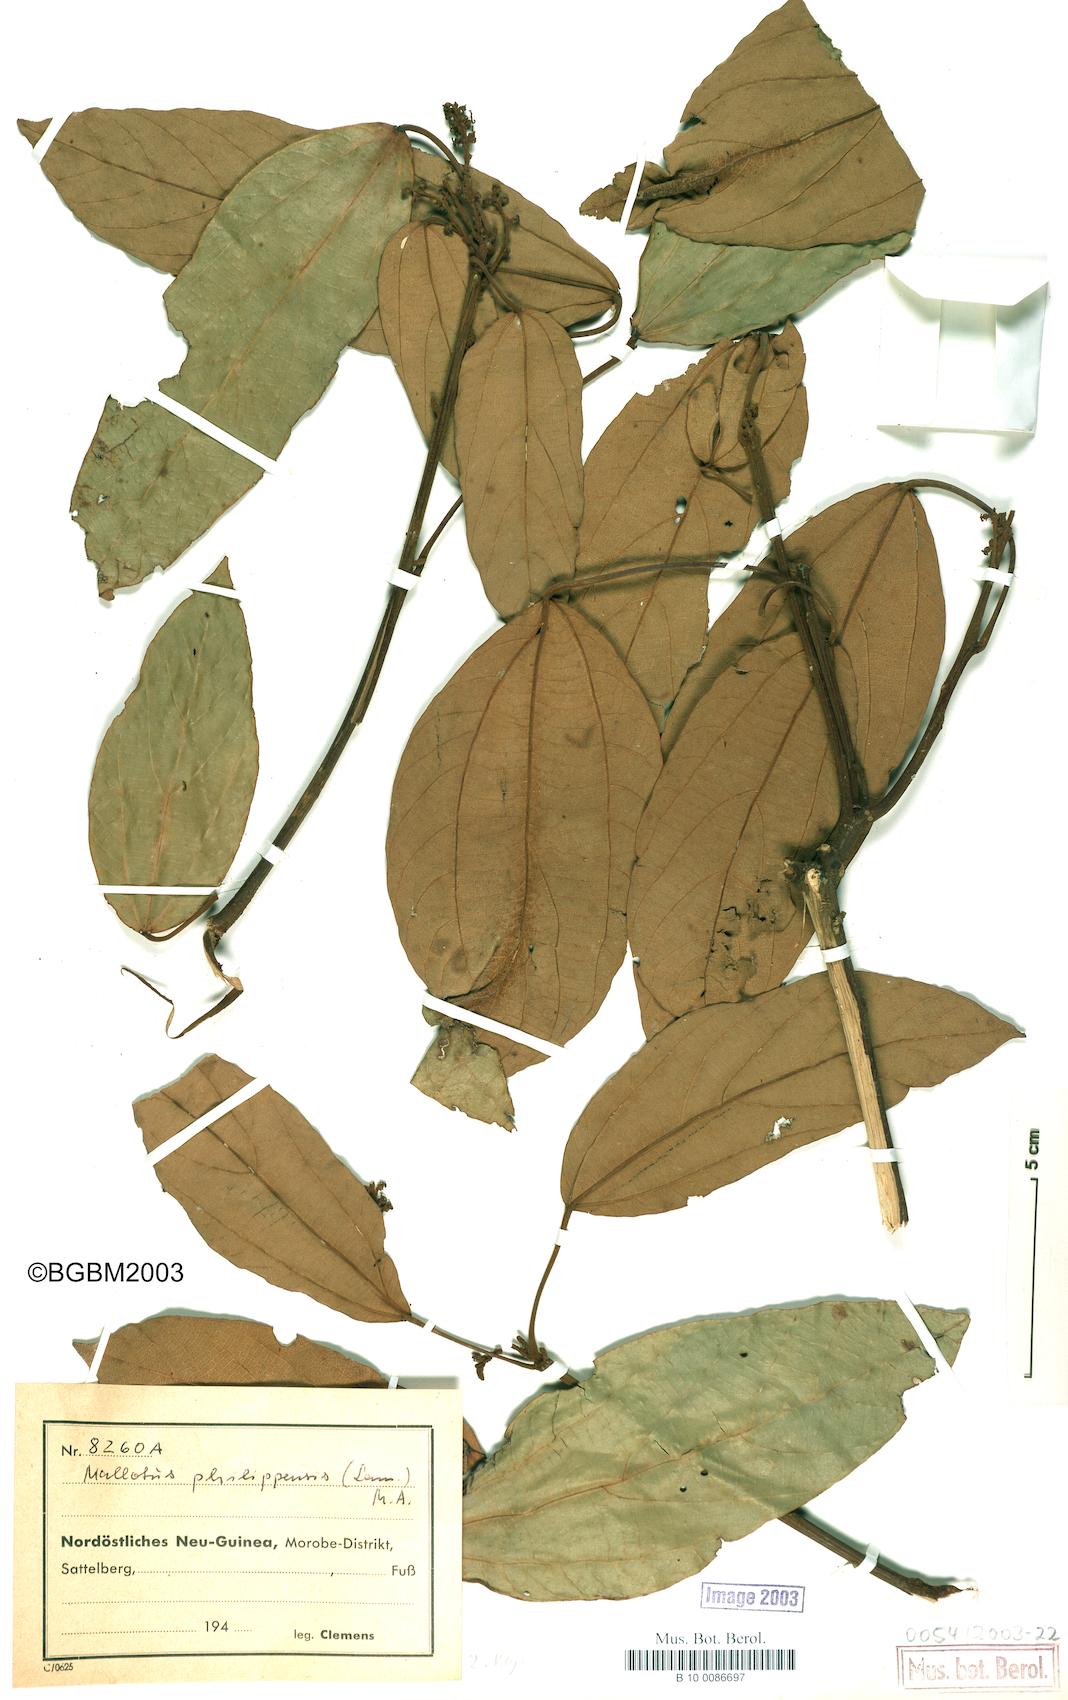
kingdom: Plantae
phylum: Tracheophyta
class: Magnoliopsida
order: Malpighiales
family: Euphorbiaceae
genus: Mallotus
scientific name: Mallotus philippensis
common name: Kamala tree
